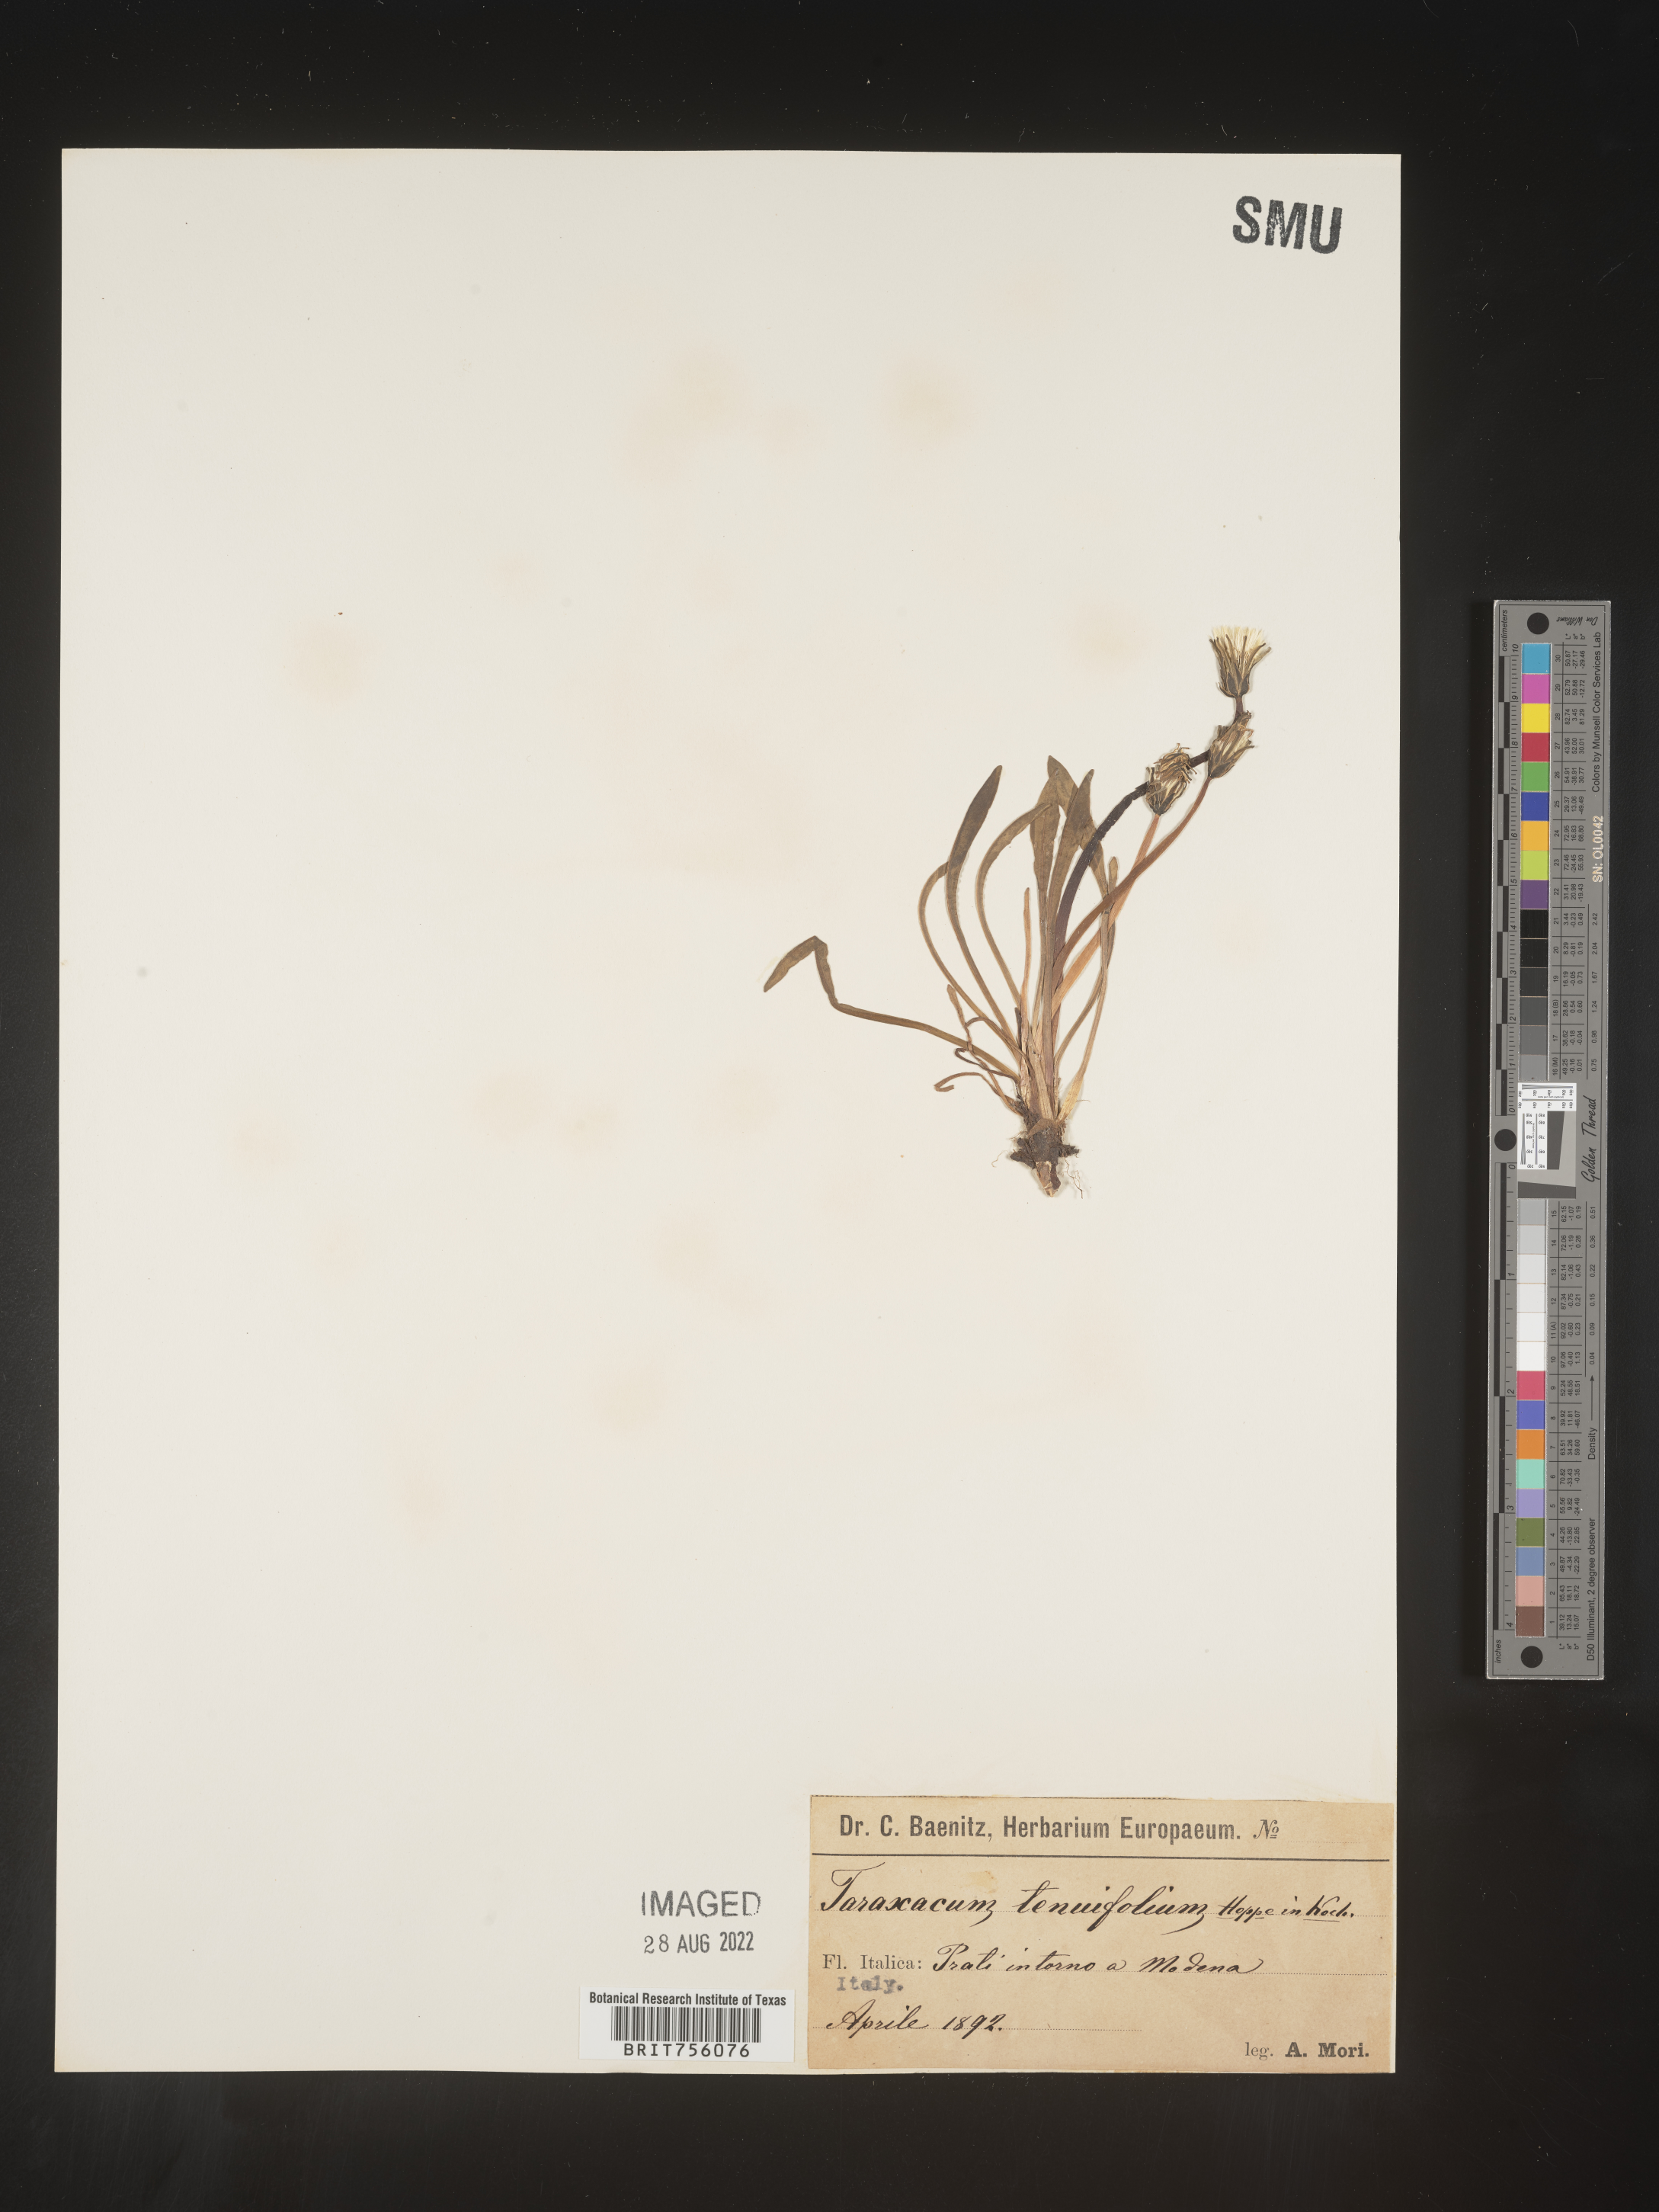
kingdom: Plantae
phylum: Tracheophyta
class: Magnoliopsida
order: Asterales
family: Asteraceae
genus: Taraxacum
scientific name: Taraxacum
